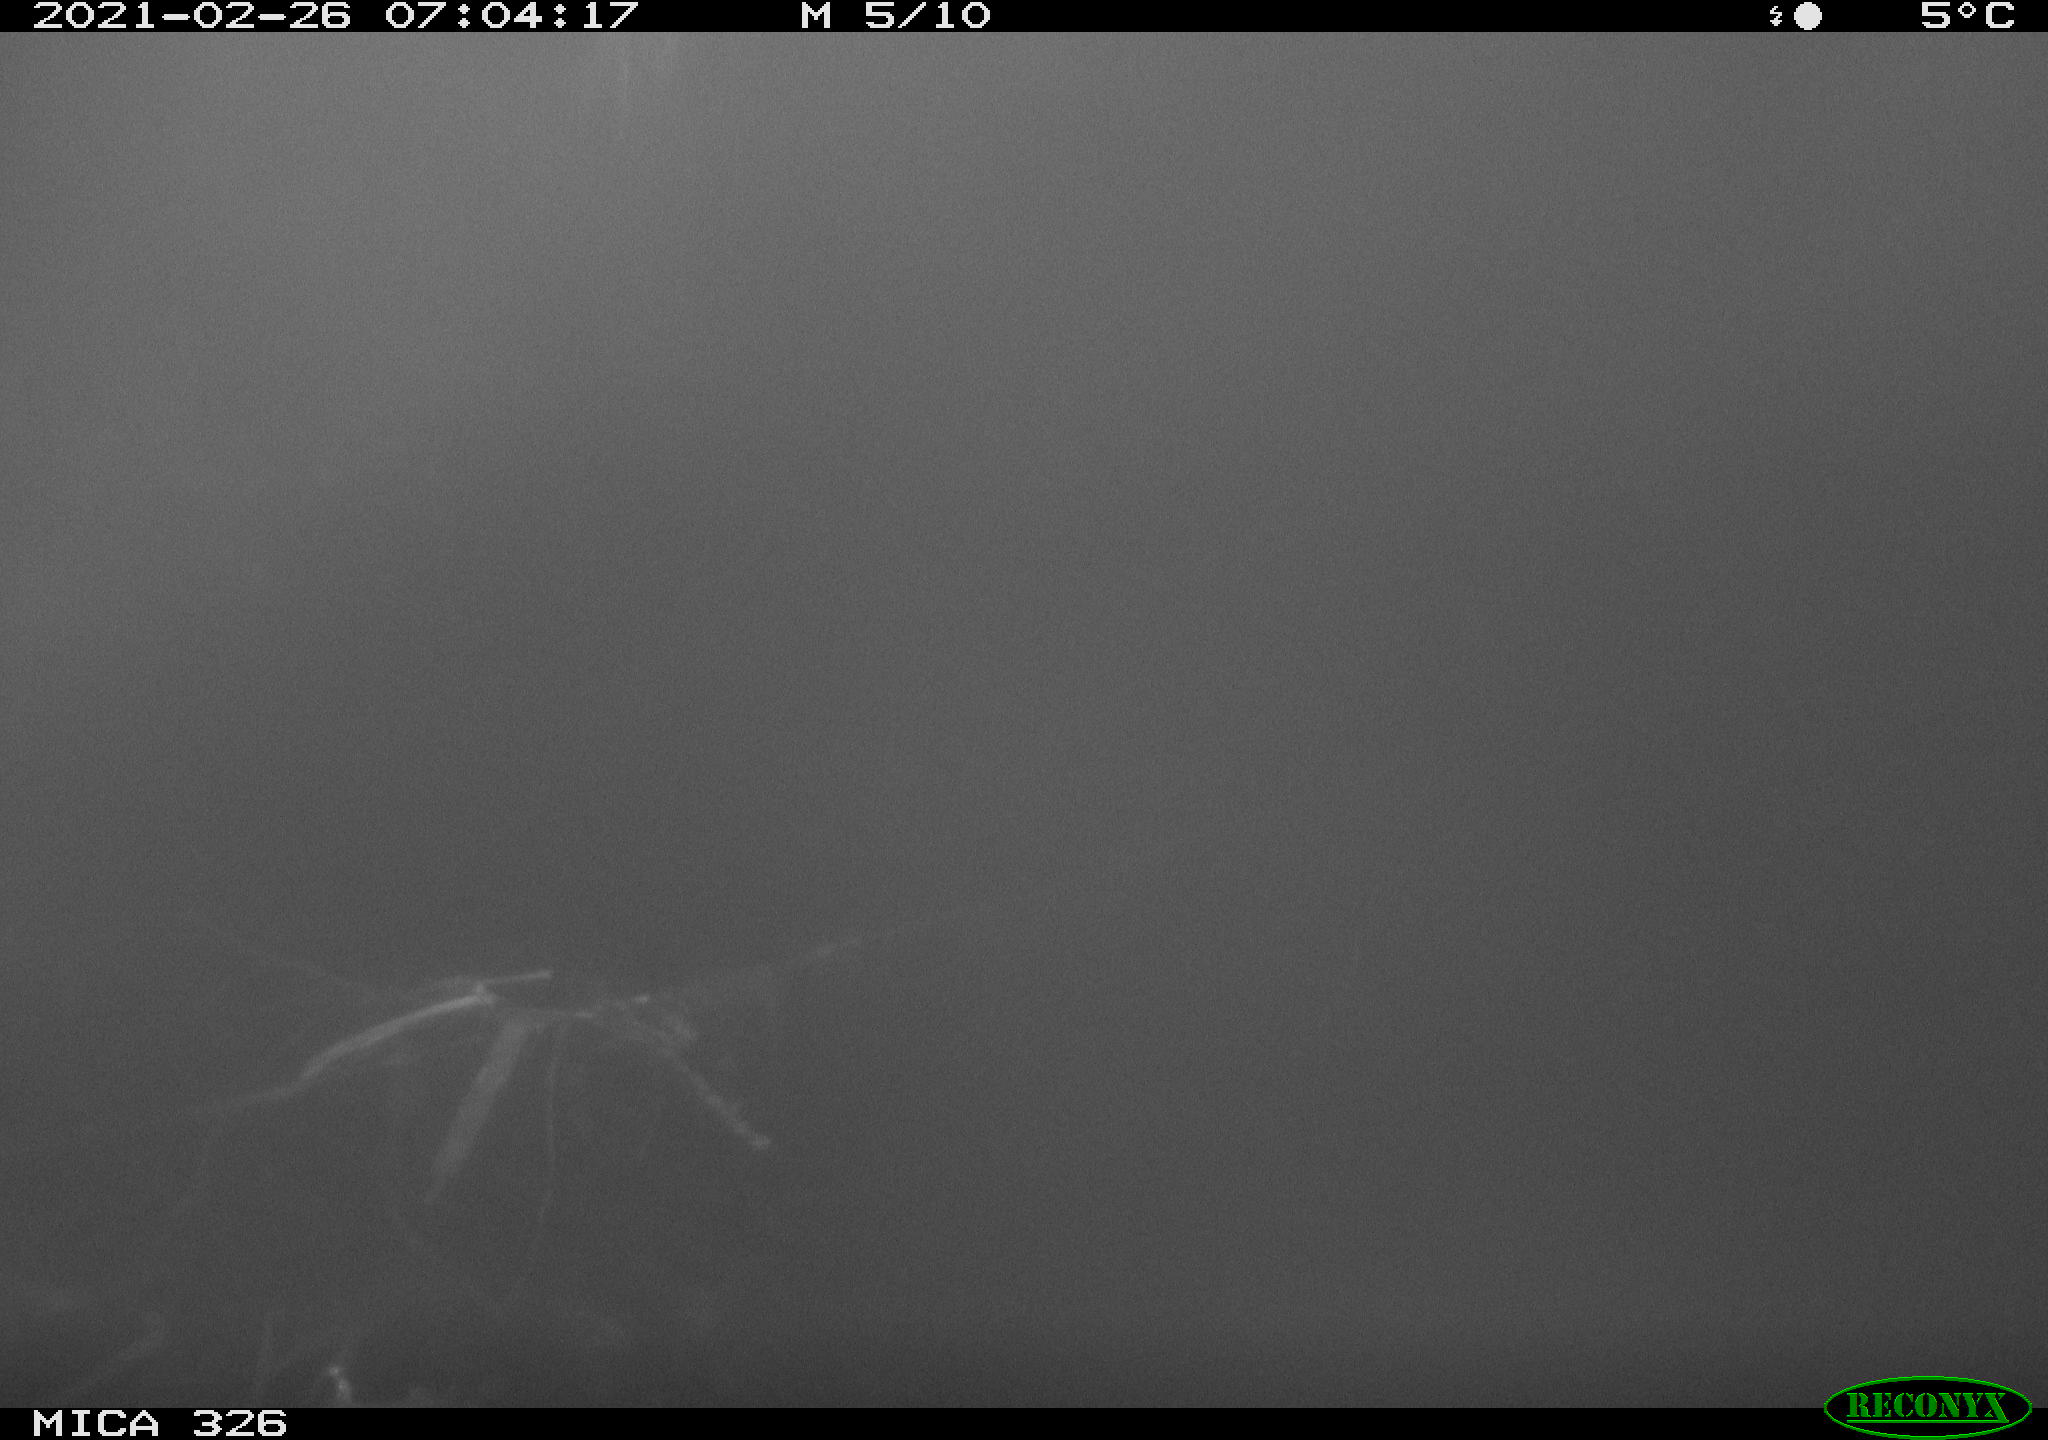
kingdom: Animalia
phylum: Chordata
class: Mammalia
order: Carnivora
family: Mustelidae
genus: Lutra
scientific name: Lutra lutra
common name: European otter
